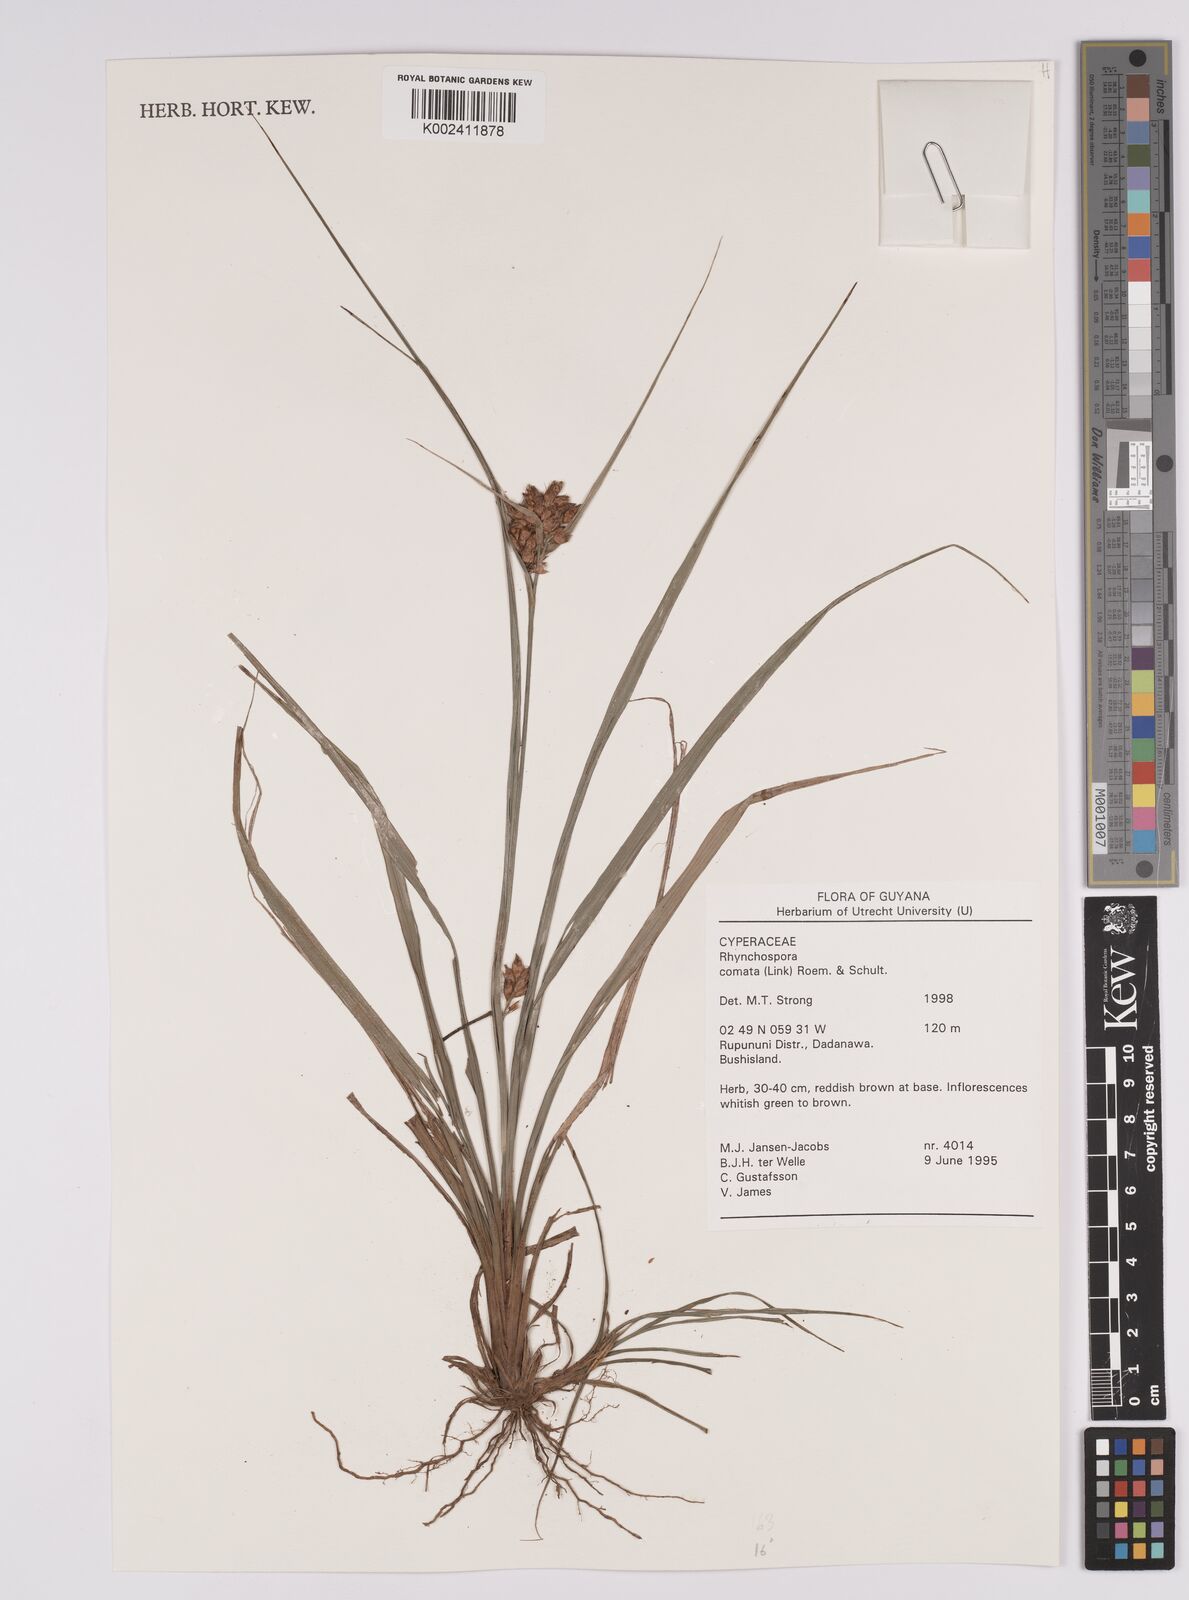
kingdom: Plantae
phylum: Tracheophyta
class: Liliopsida
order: Poales
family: Cyperaceae
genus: Rhynchospora
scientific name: Rhynchospora comata
